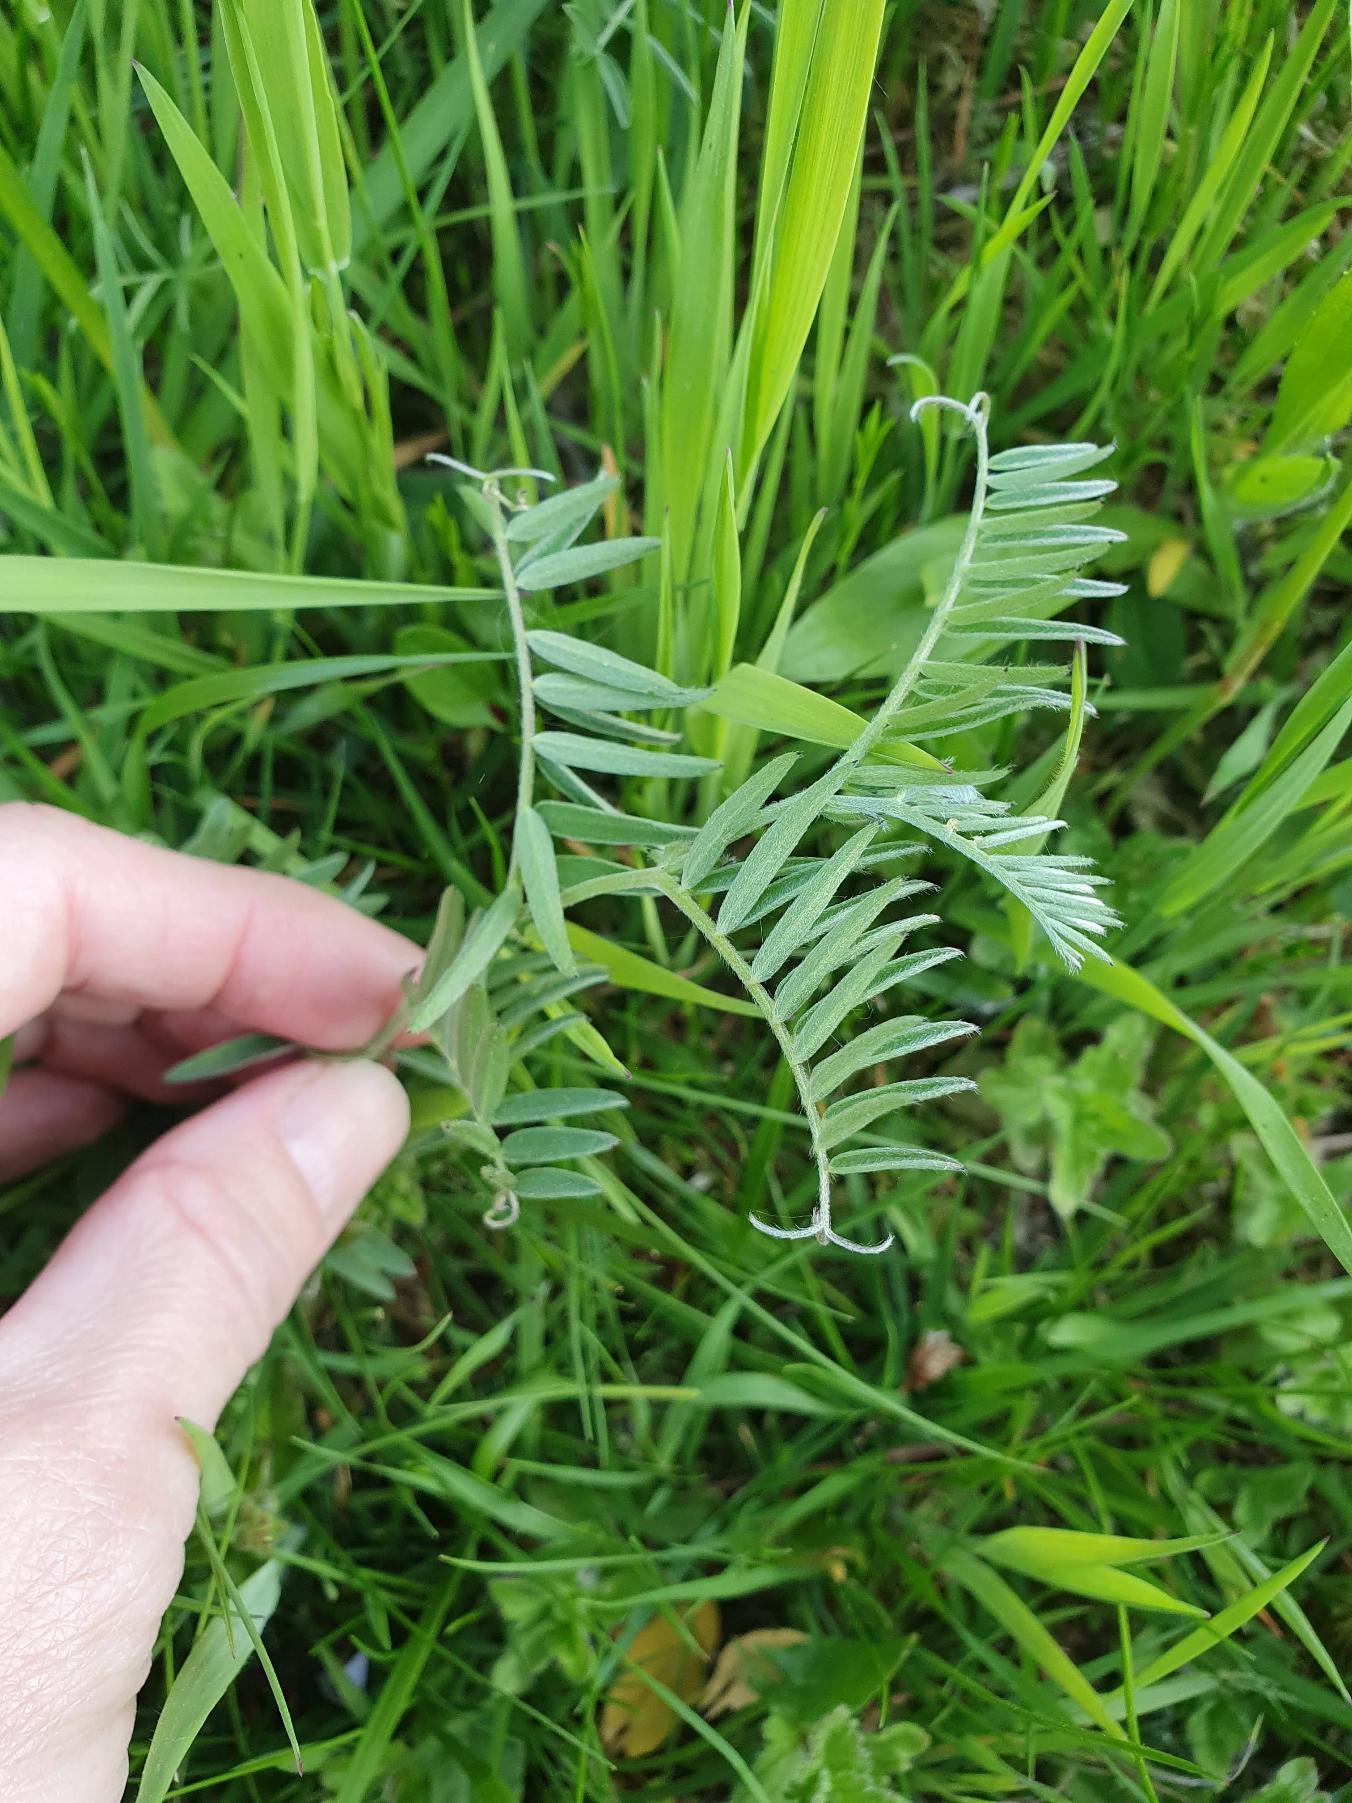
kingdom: Plantae
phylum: Tracheophyta
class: Magnoliopsida
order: Fabales
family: Fabaceae
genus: Vicia
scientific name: Vicia cracca
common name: Muse-vikke
